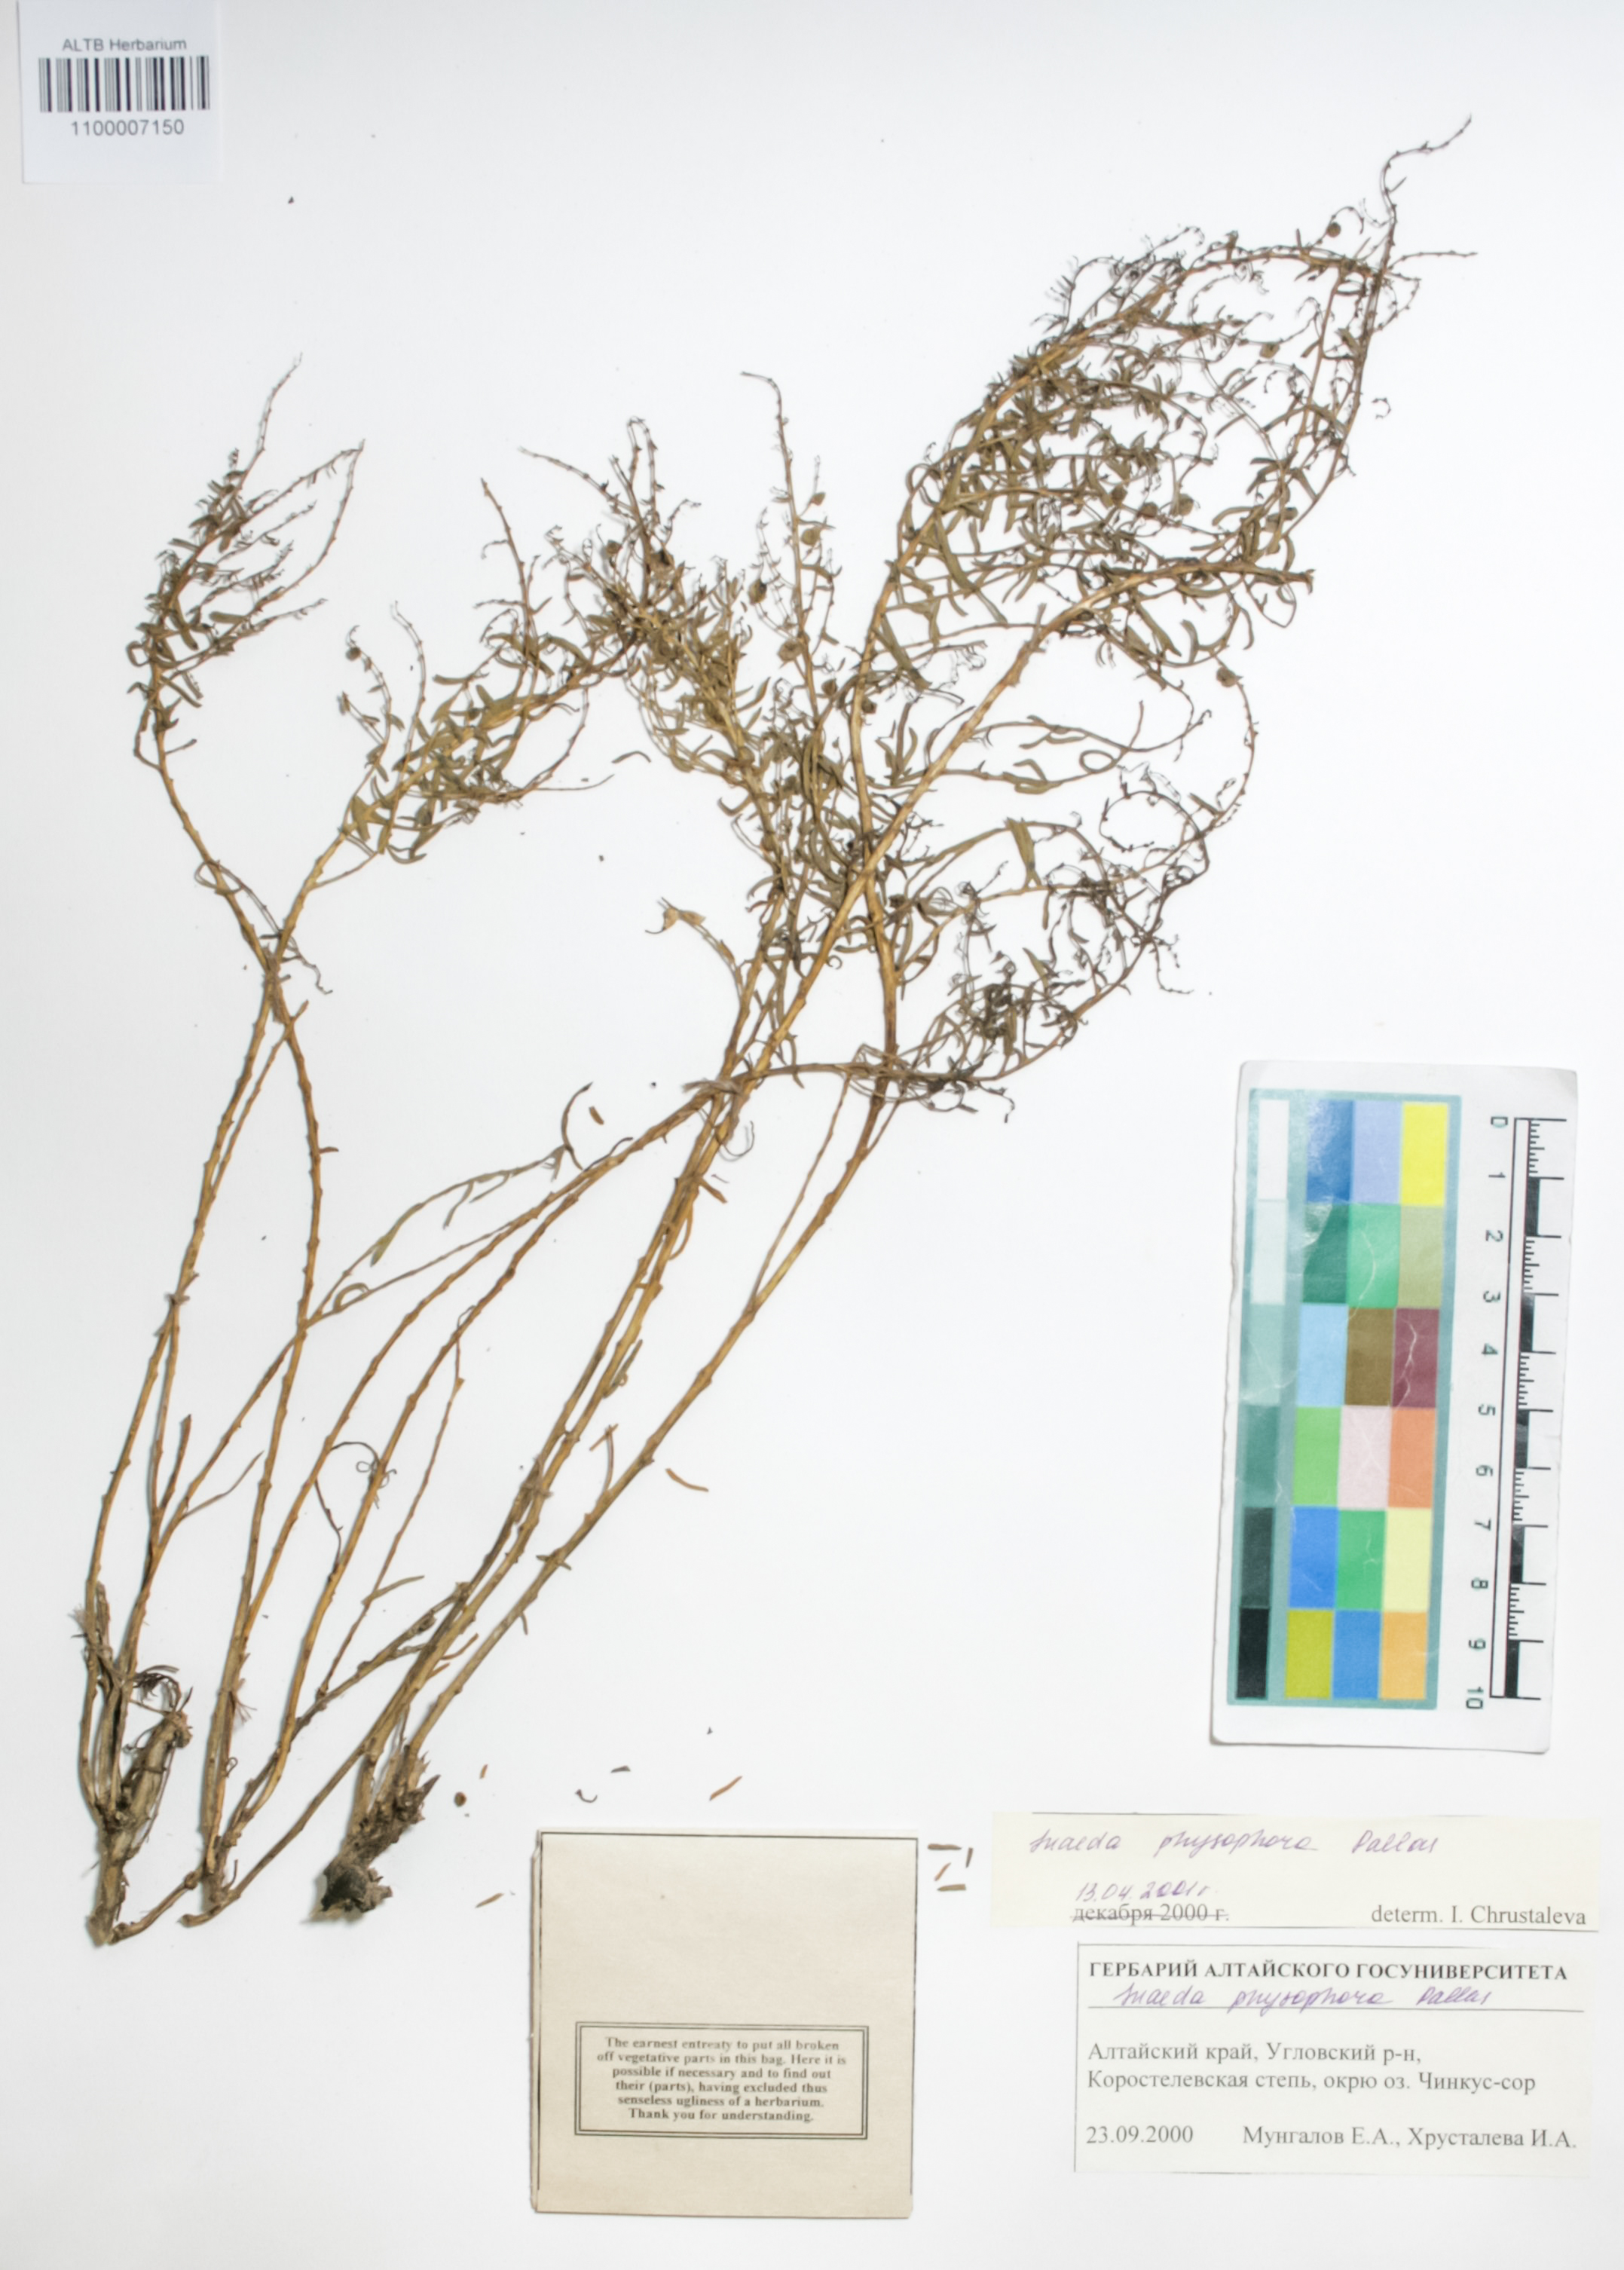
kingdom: Plantae
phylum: Tracheophyta
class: Magnoliopsida
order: Caryophyllales
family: Amaranthaceae
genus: Suaeda
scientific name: Suaeda physophora
